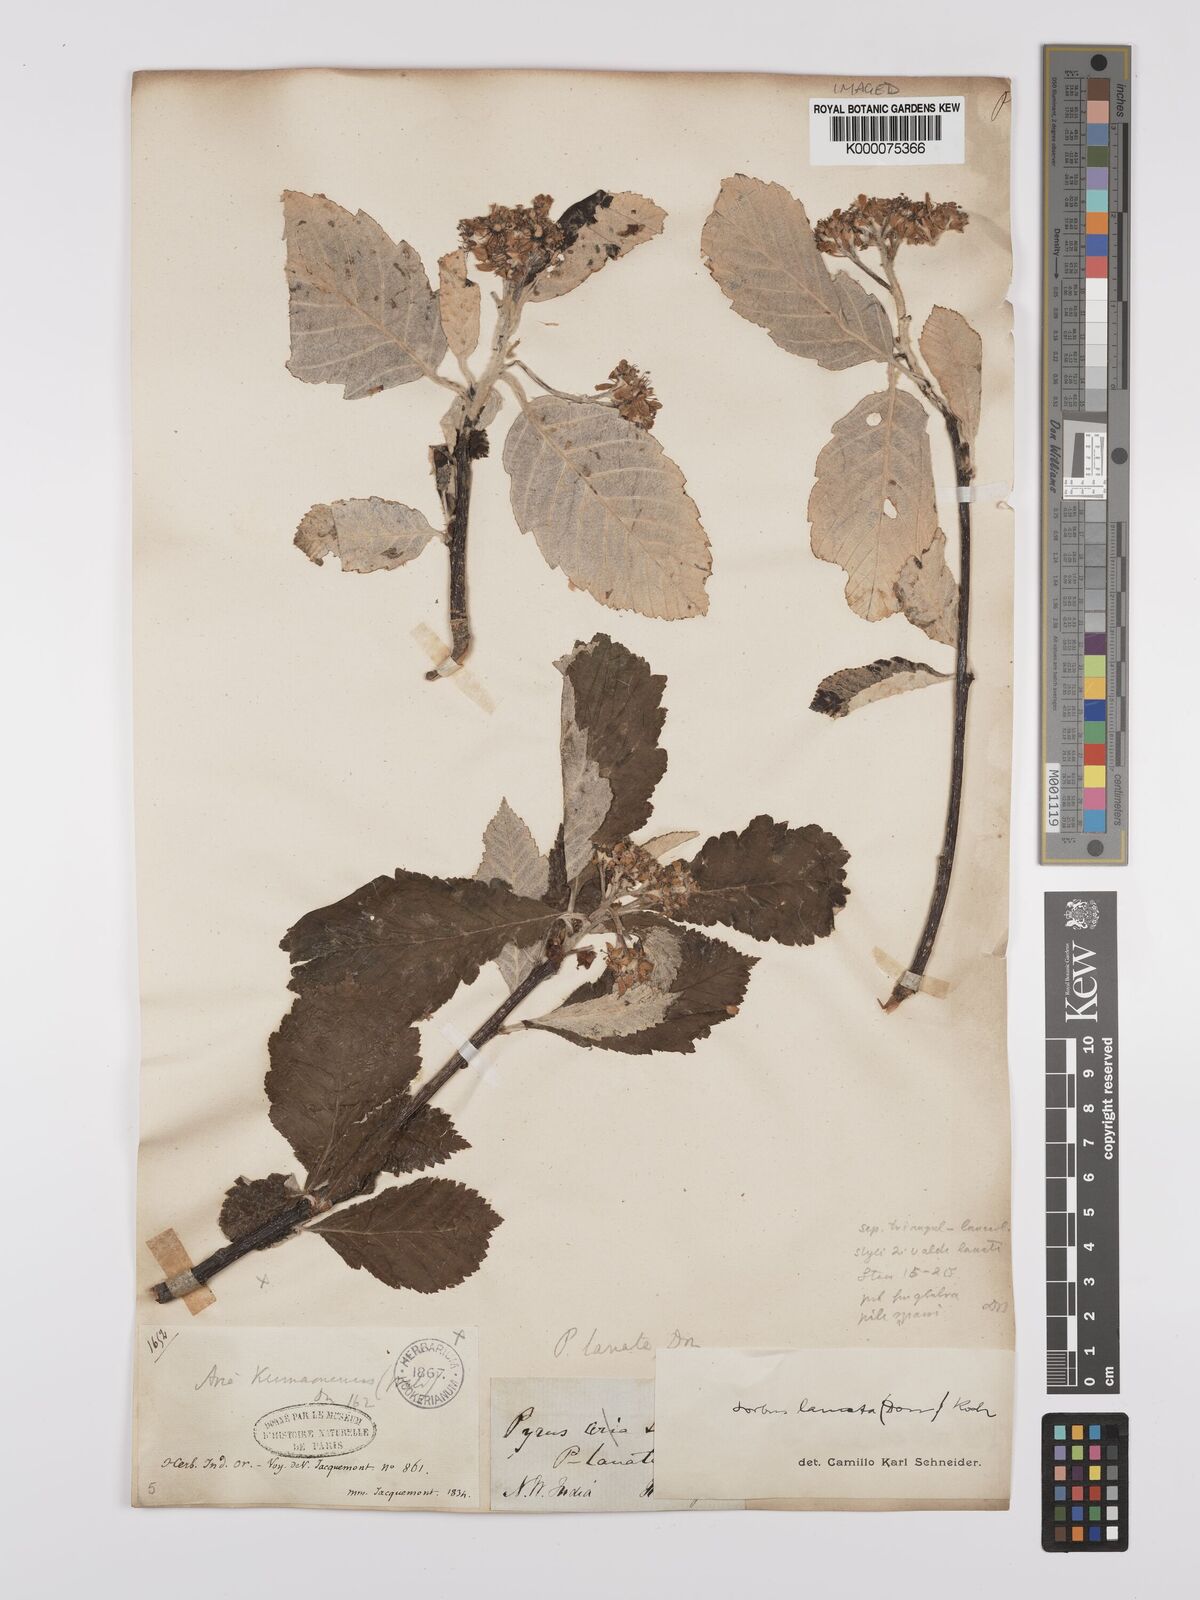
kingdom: Plantae
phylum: Tracheophyta
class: Magnoliopsida
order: Rosales
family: Rosaceae
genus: Sorbus
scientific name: Sorbus lanata
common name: Hairy rowan
